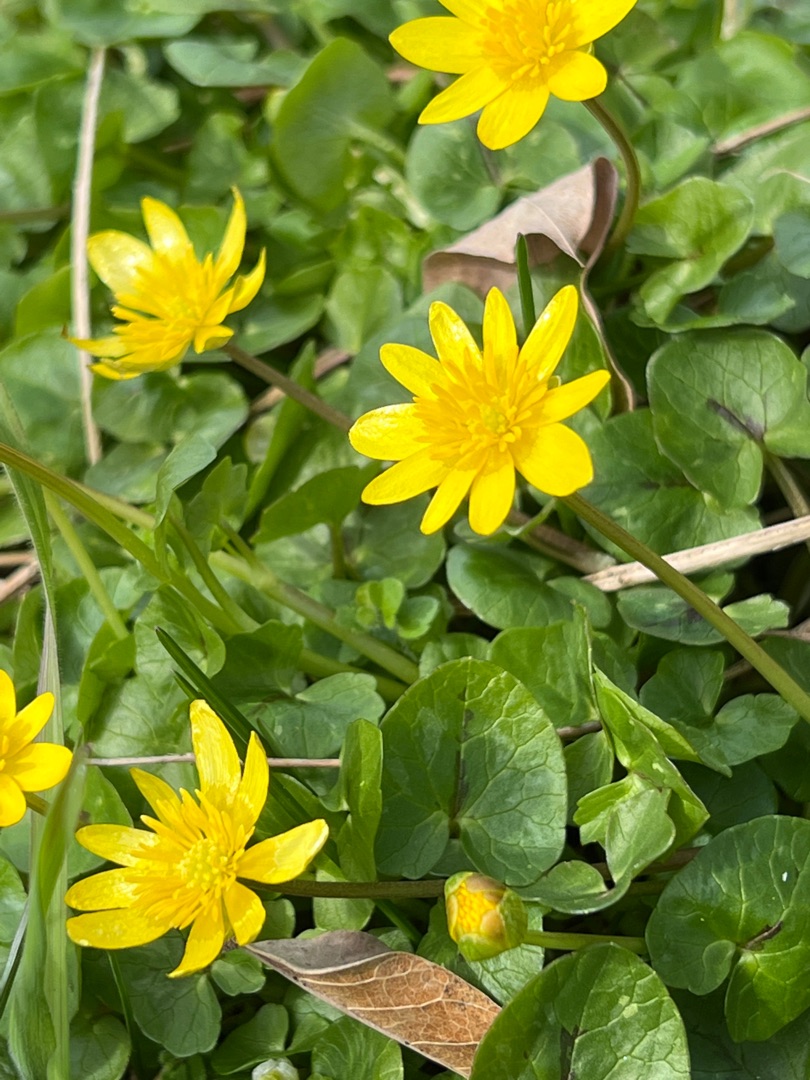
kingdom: Plantae
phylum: Tracheophyta
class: Magnoliopsida
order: Ranunculales
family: Ranunculaceae
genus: Ficaria
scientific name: Ficaria verna
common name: Vorterod
